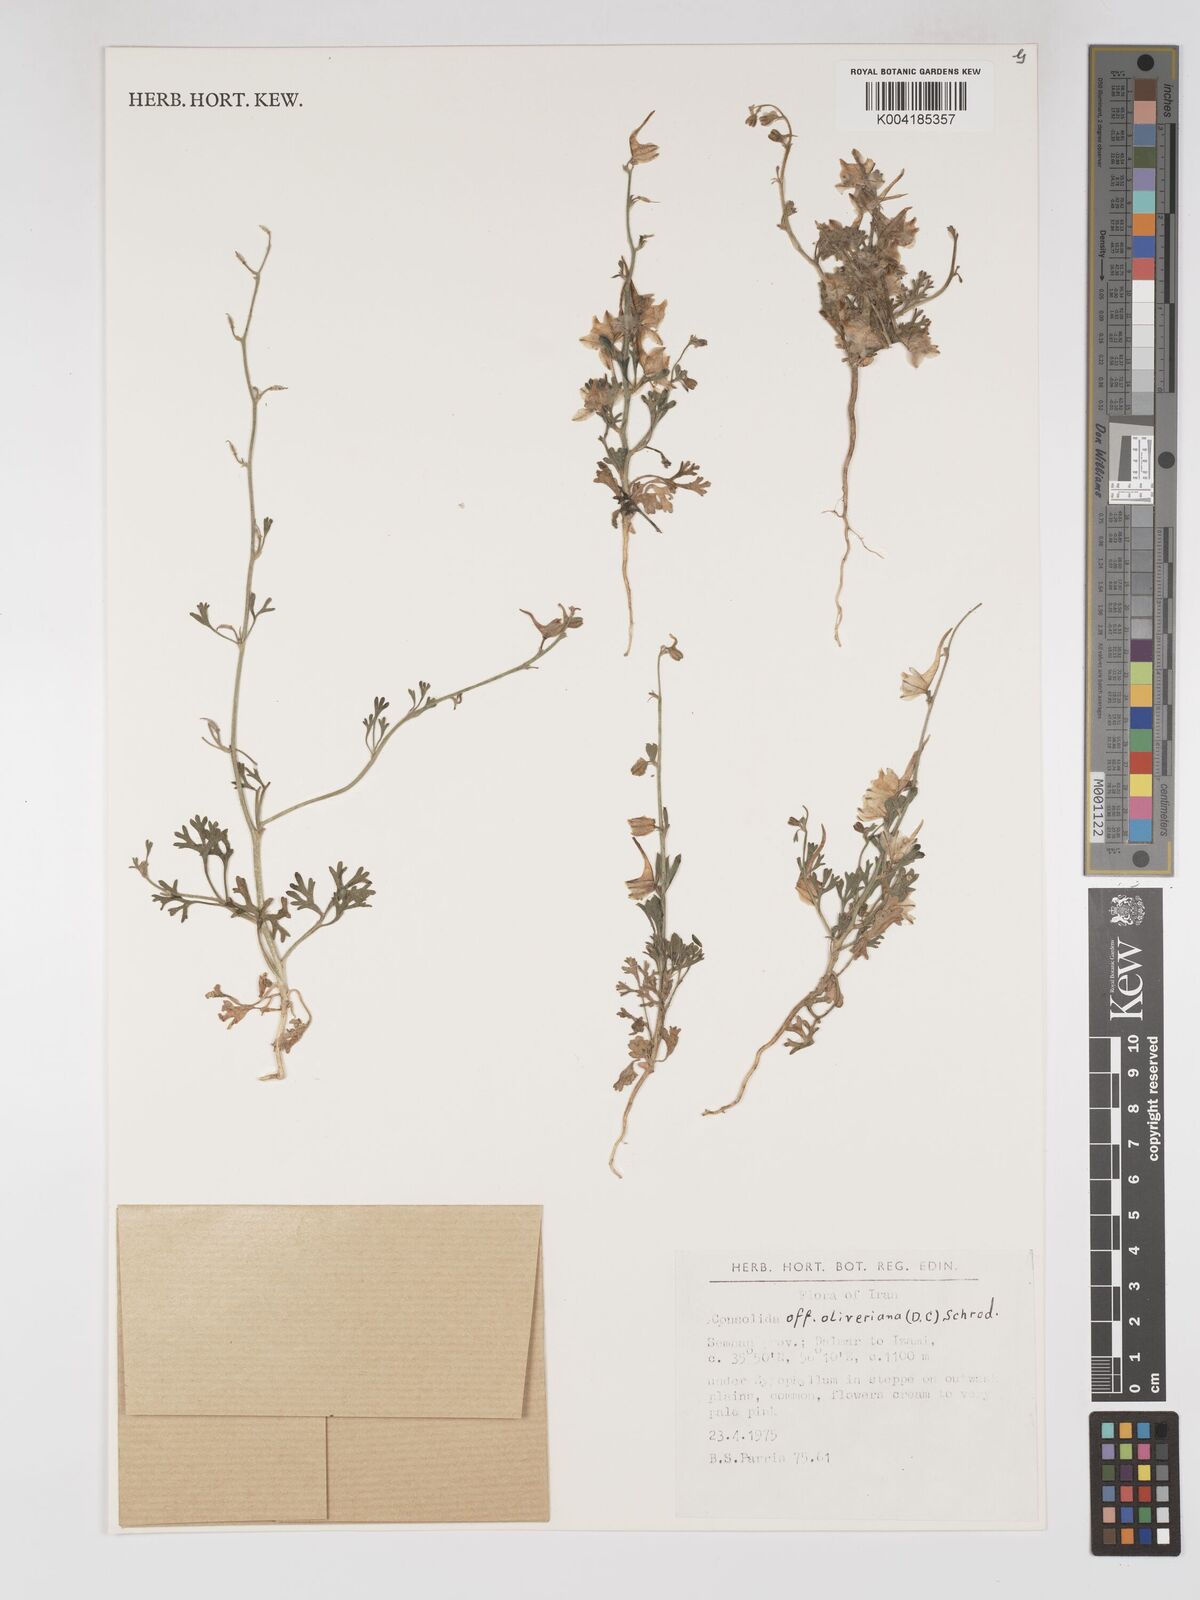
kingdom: Plantae
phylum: Tracheophyta
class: Magnoliopsida
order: Ranunculales
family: Ranunculaceae
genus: Delphinium
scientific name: Delphinium oliverianum
